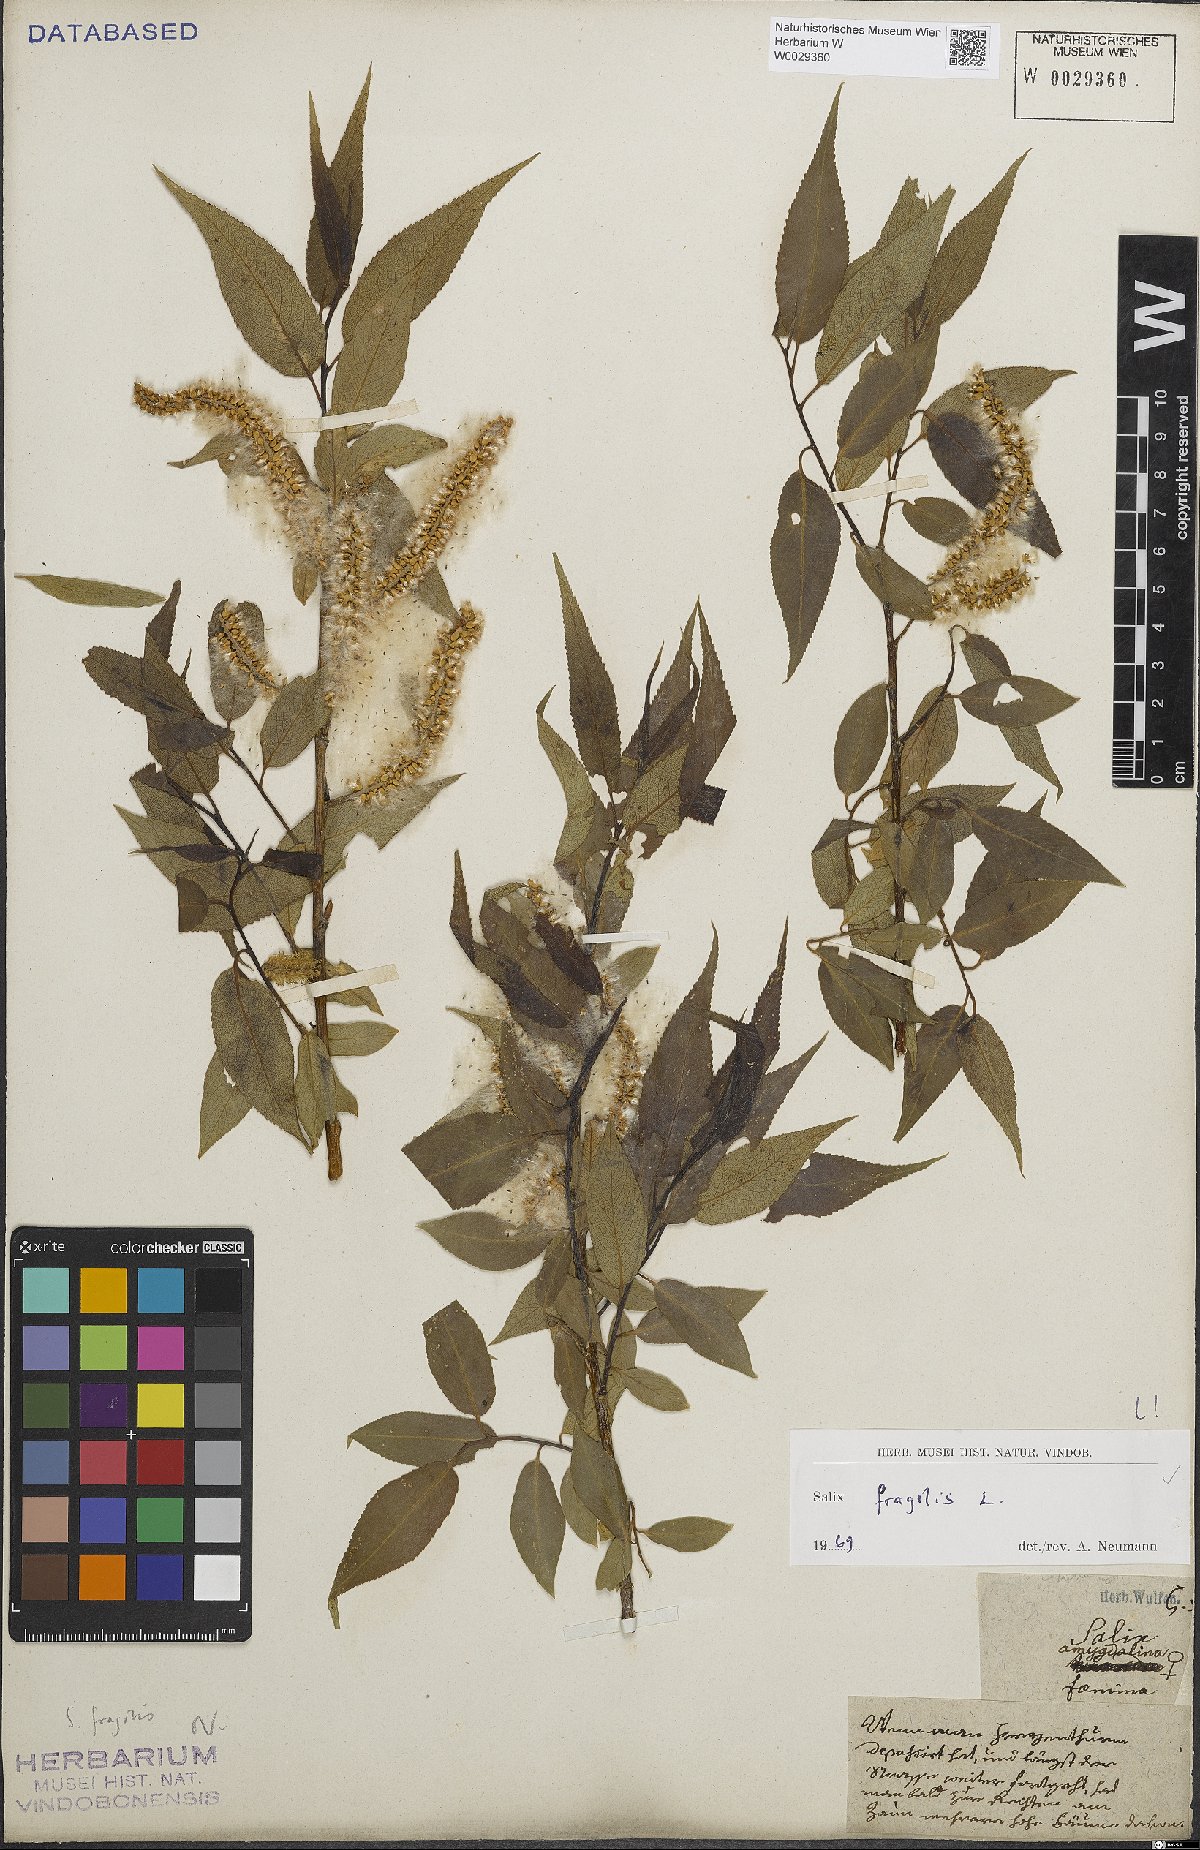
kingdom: Plantae
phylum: Tracheophyta
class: Magnoliopsida
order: Malpighiales
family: Salicaceae
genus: Salix
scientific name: Salix fragilis
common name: Crack willow
